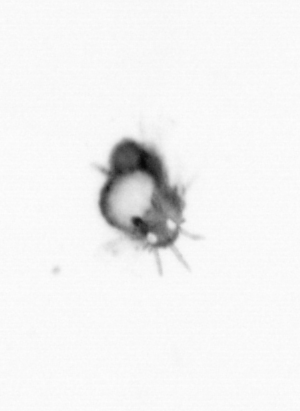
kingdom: Animalia
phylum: Annelida
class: Polychaeta
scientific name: Polychaeta
